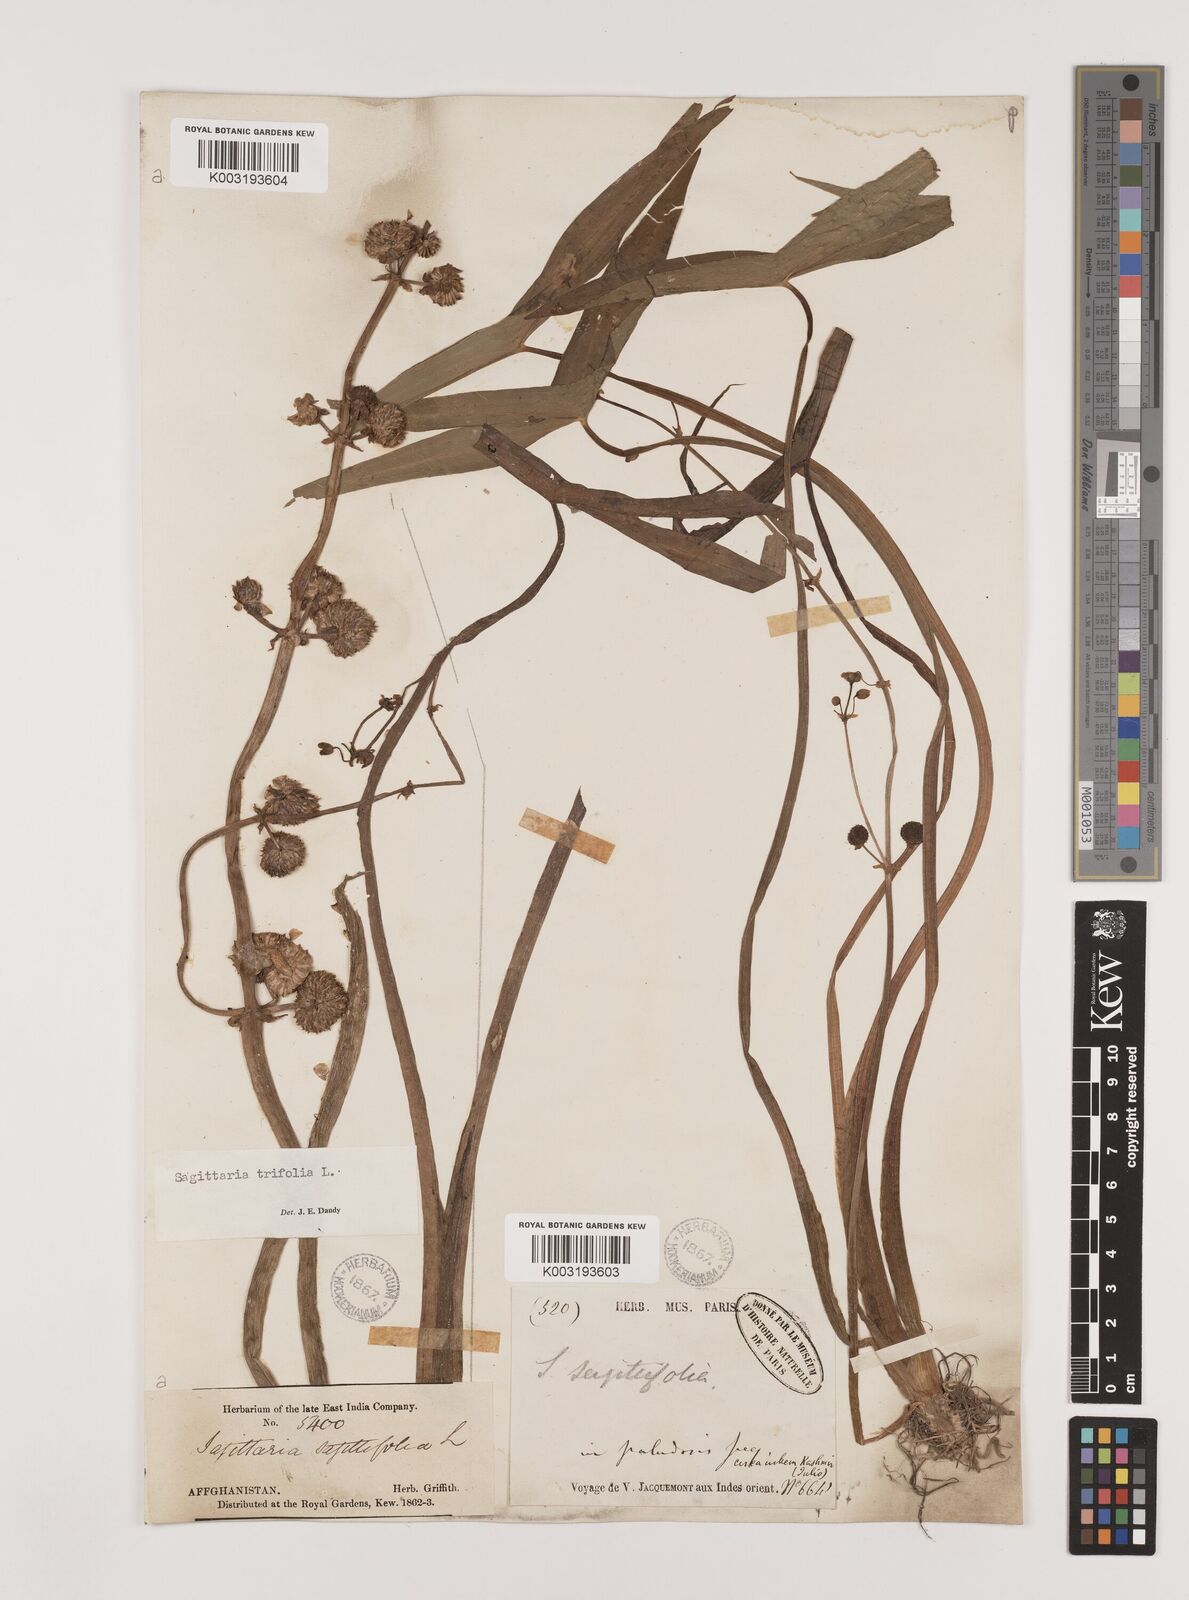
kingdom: Plantae
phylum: Tracheophyta
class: Liliopsida
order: Alismatales
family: Alismataceae
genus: Sagittaria
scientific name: Sagittaria sagittifolia
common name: Arrowhead
